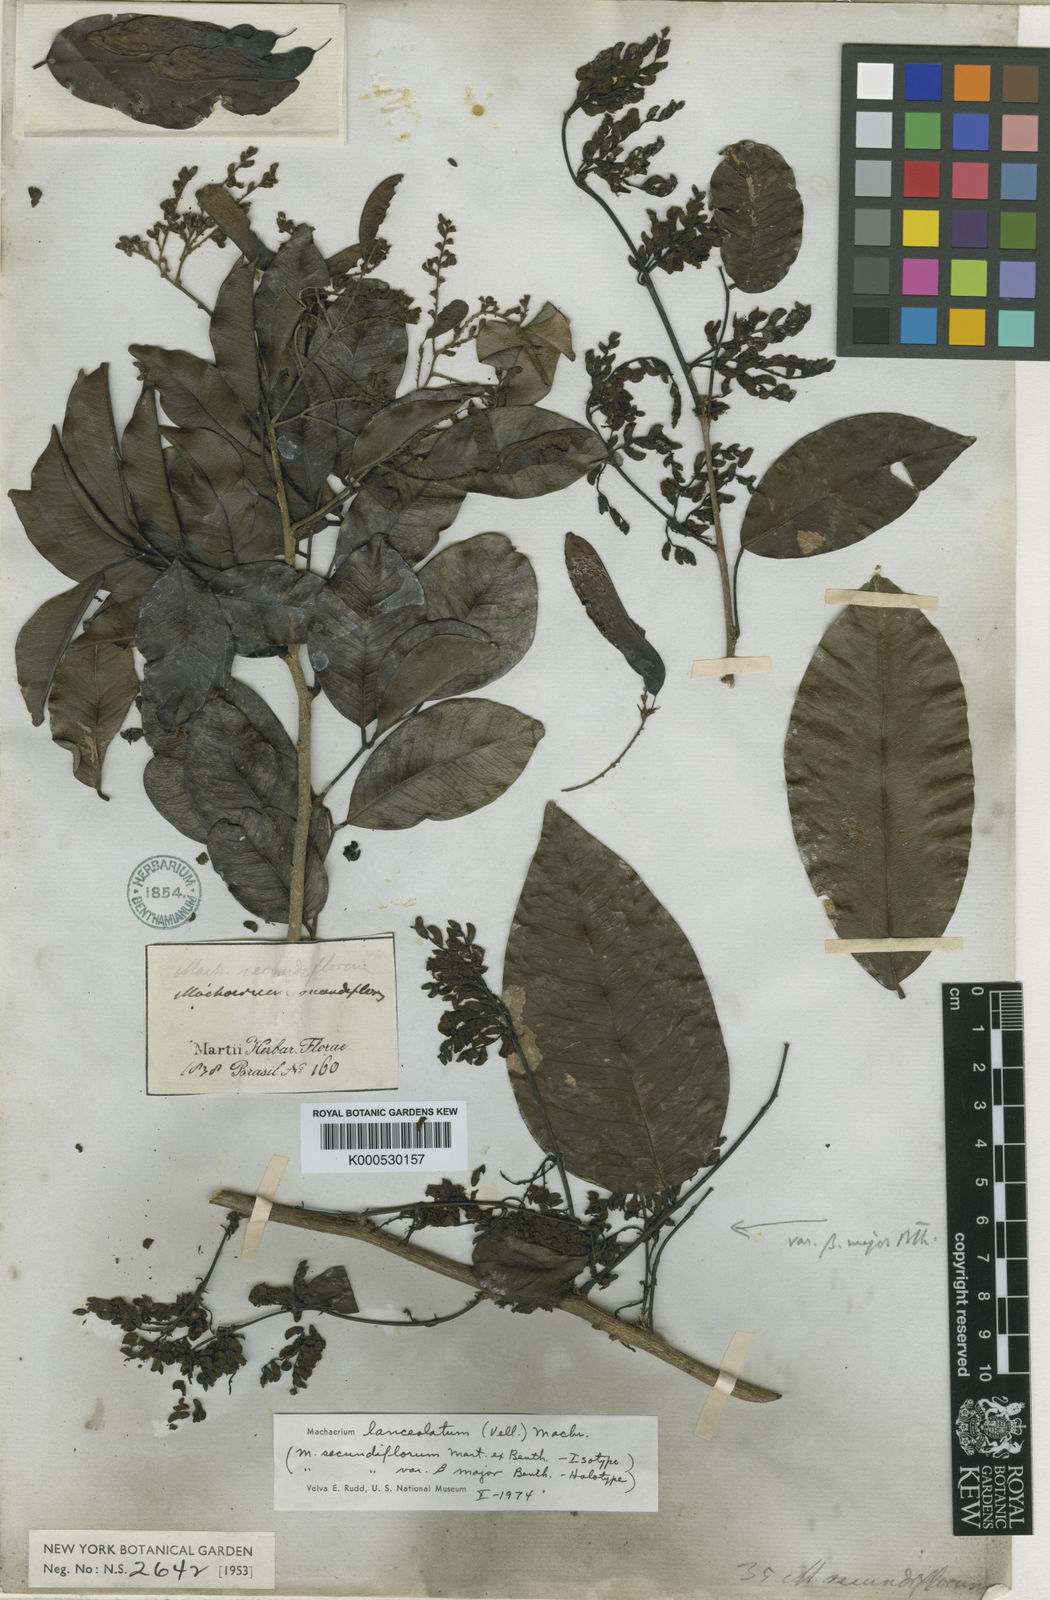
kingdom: Plantae
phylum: Tracheophyta
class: Magnoliopsida
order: Fabales
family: Fabaceae
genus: Machaerium
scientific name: Machaerium lanceolatum
